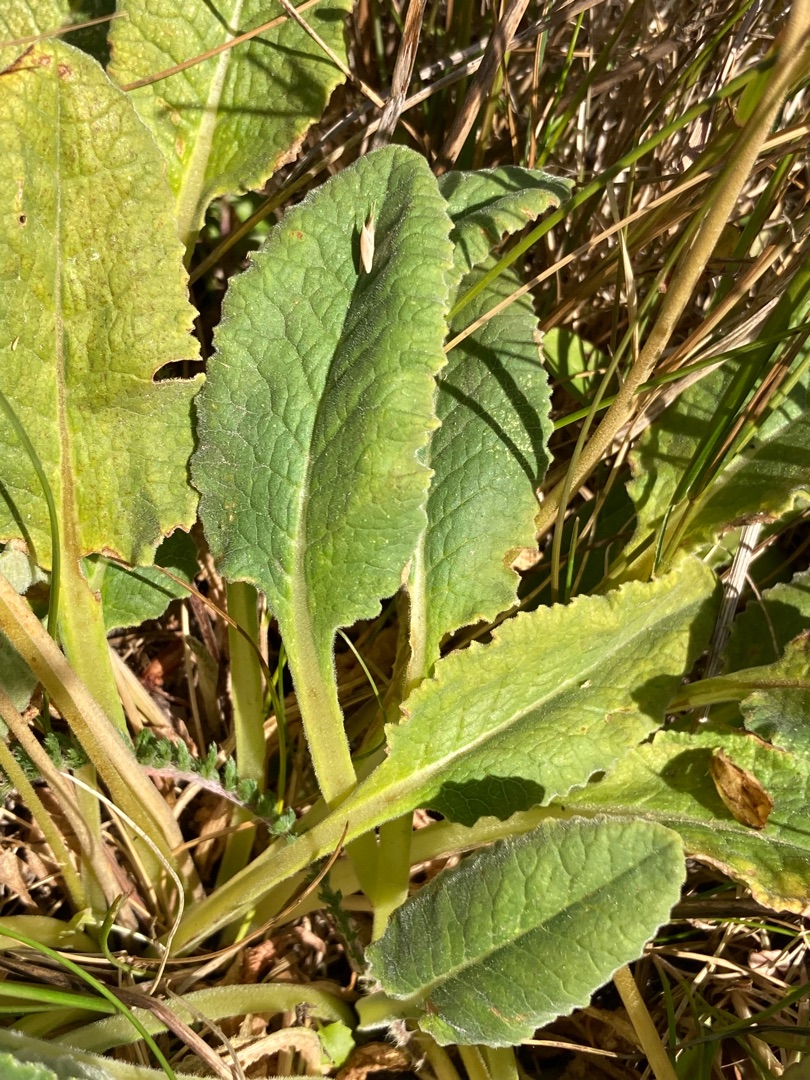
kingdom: Plantae
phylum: Tracheophyta
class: Magnoliopsida
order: Ericales
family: Primulaceae
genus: Primula
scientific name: Primula veris
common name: Hulkravet kodriver
